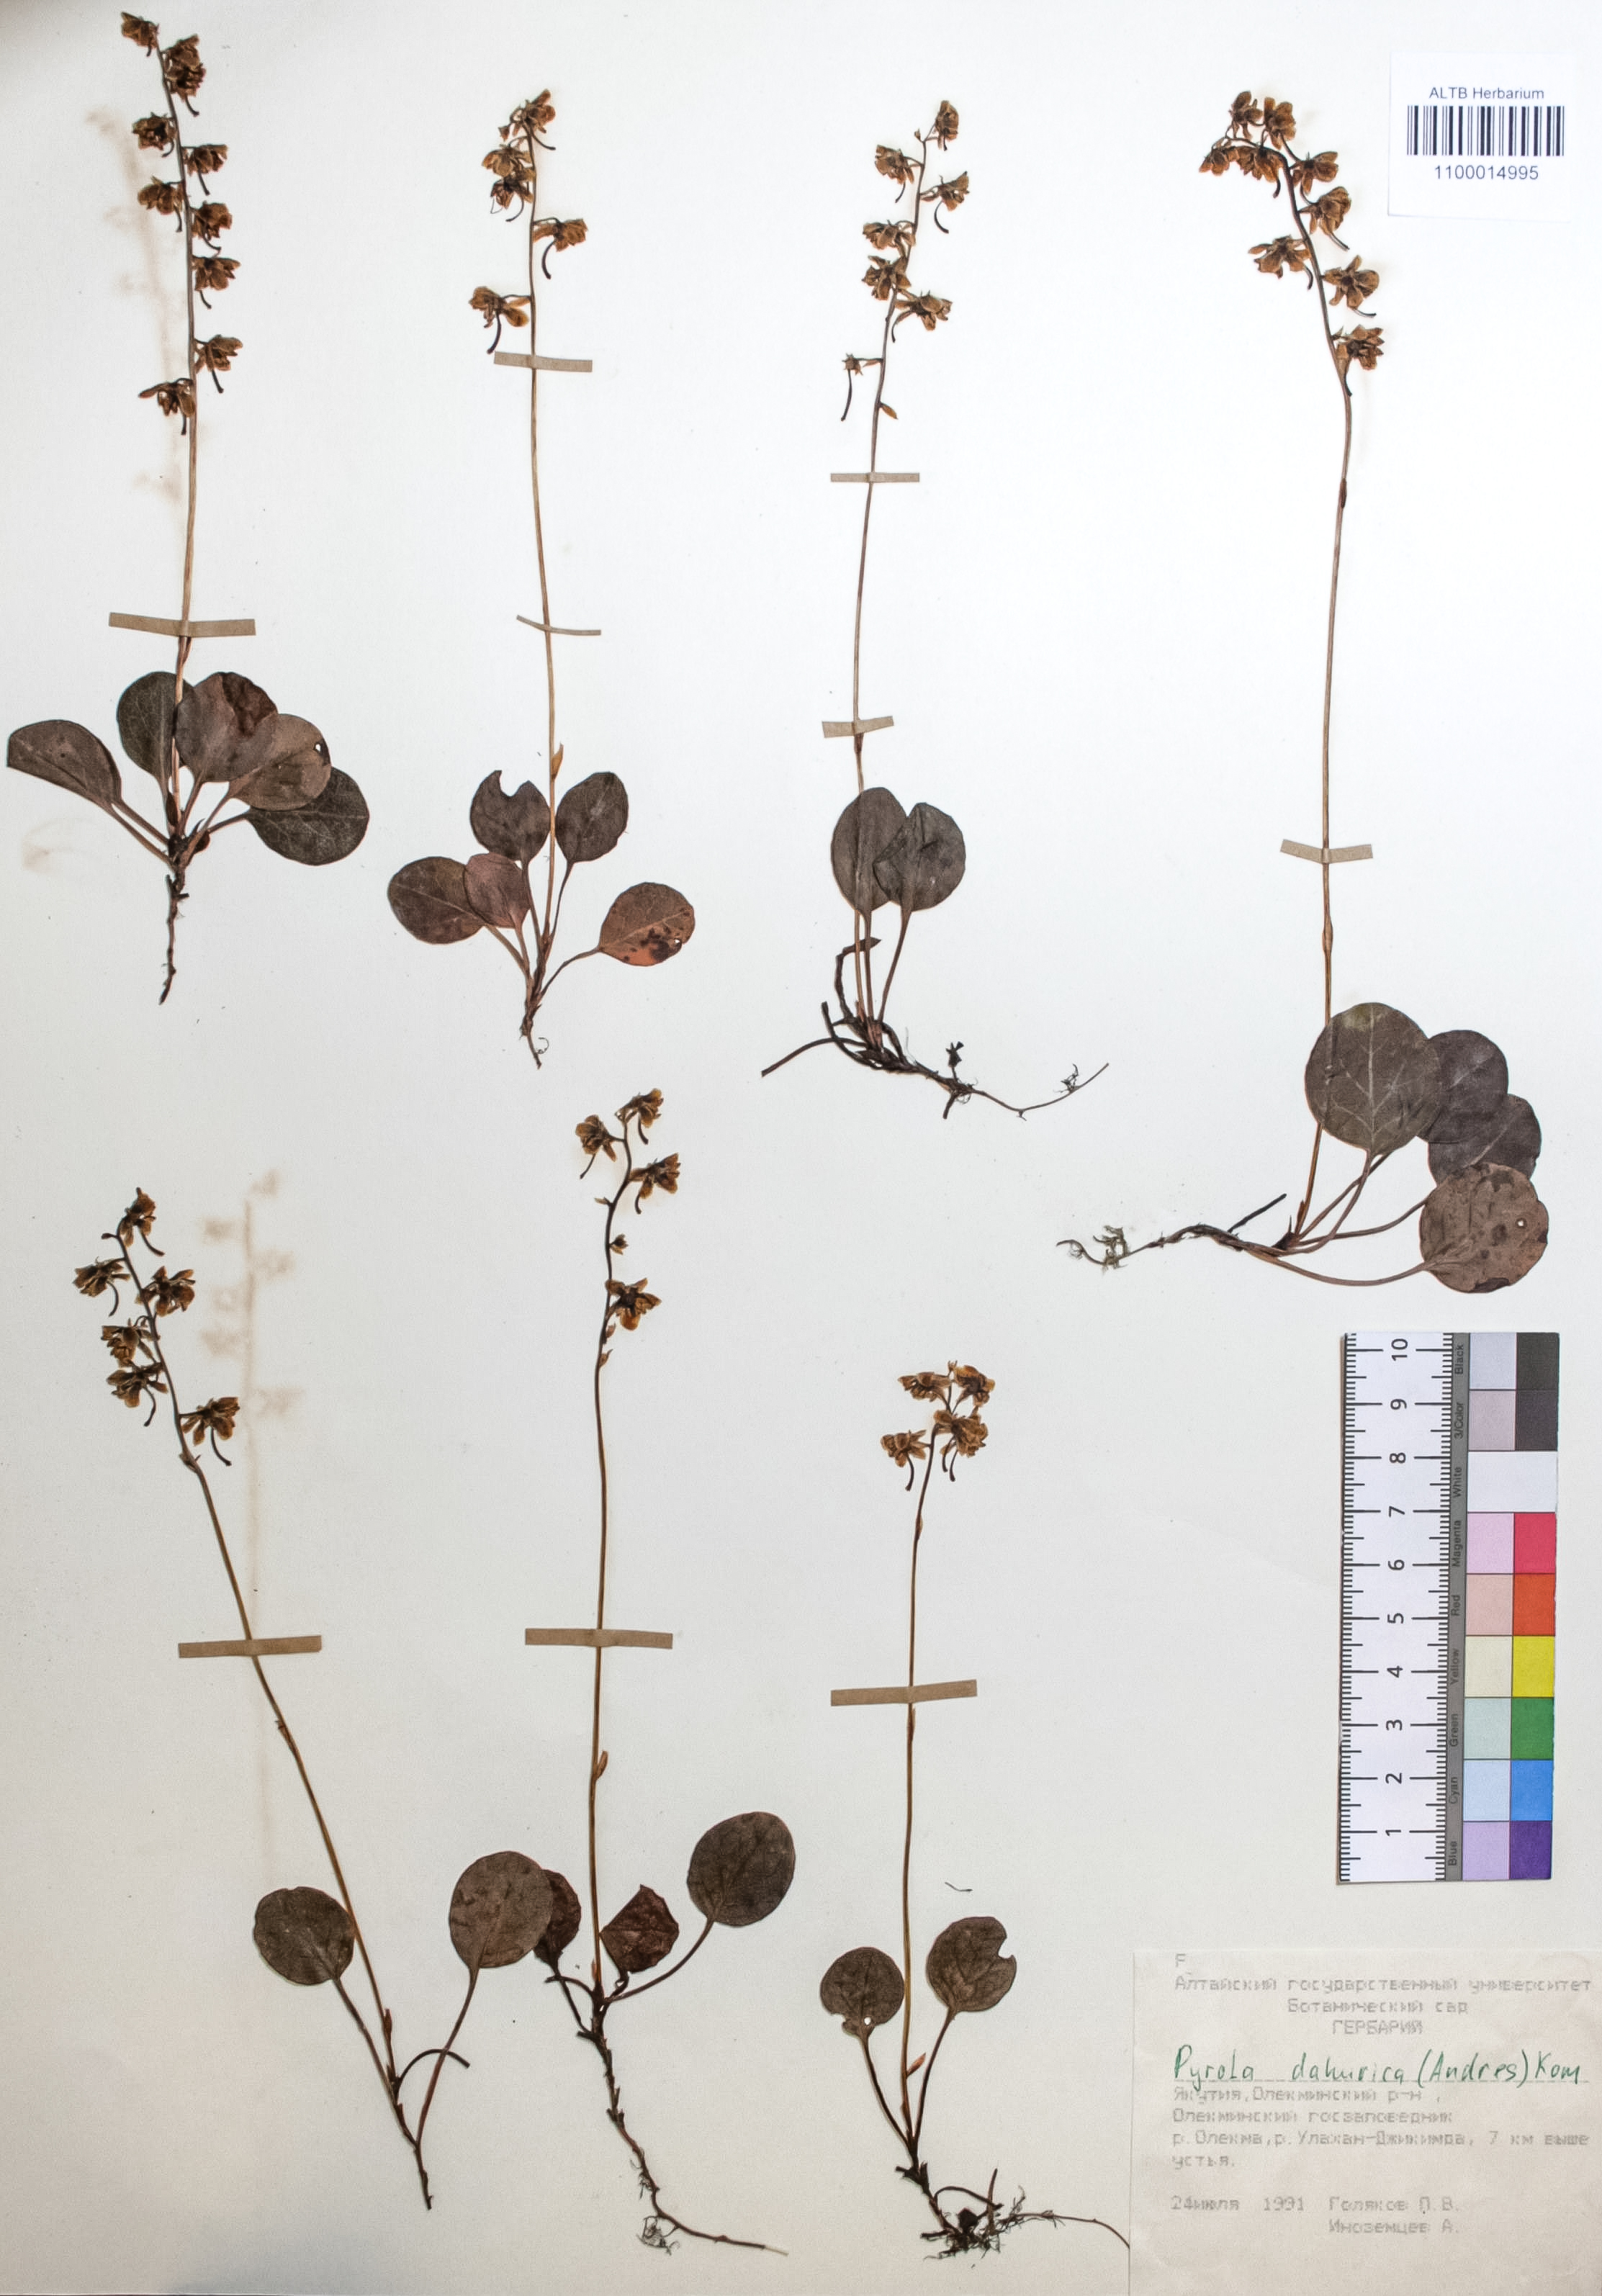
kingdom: Plantae
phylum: Tracheophyta
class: Magnoliopsida
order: Ericales
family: Ericaceae
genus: Rhododendron
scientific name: Rhododendron dahuricum
